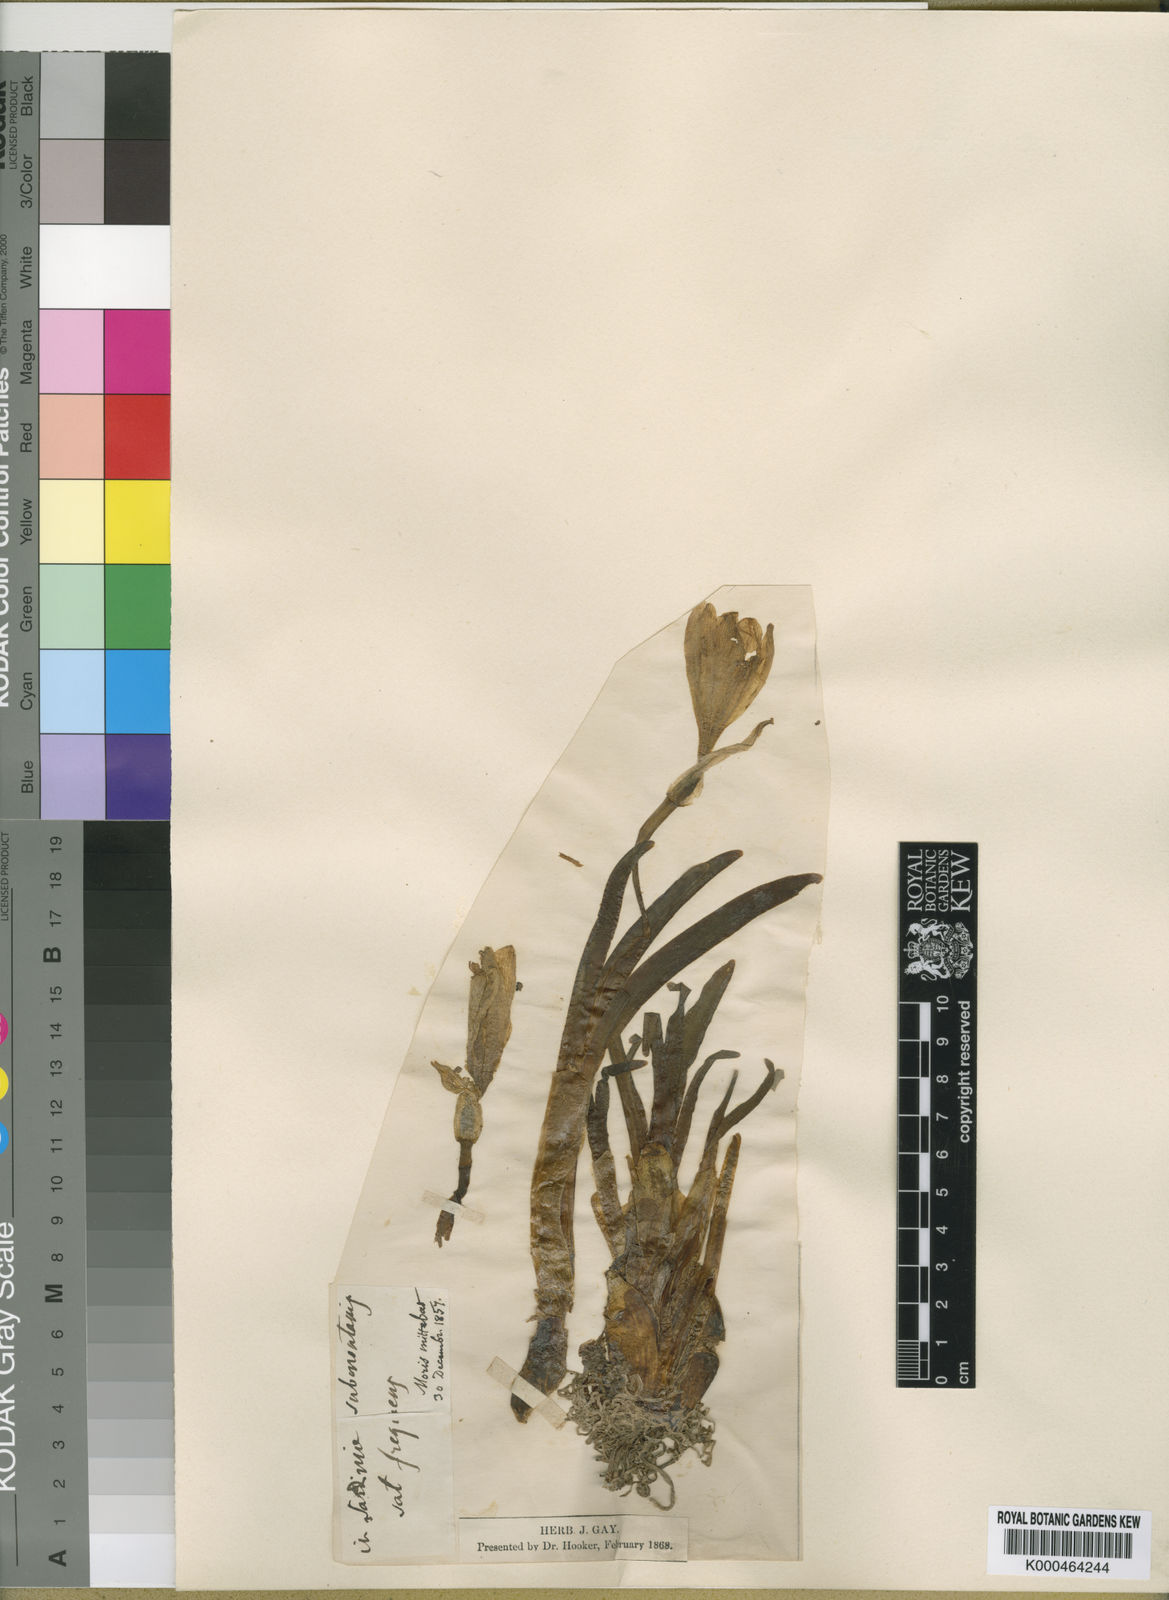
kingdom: Plantae
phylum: Tracheophyta
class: Liliopsida
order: Asparagales
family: Amaryllidaceae
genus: Sternbergia
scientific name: Sternbergia
